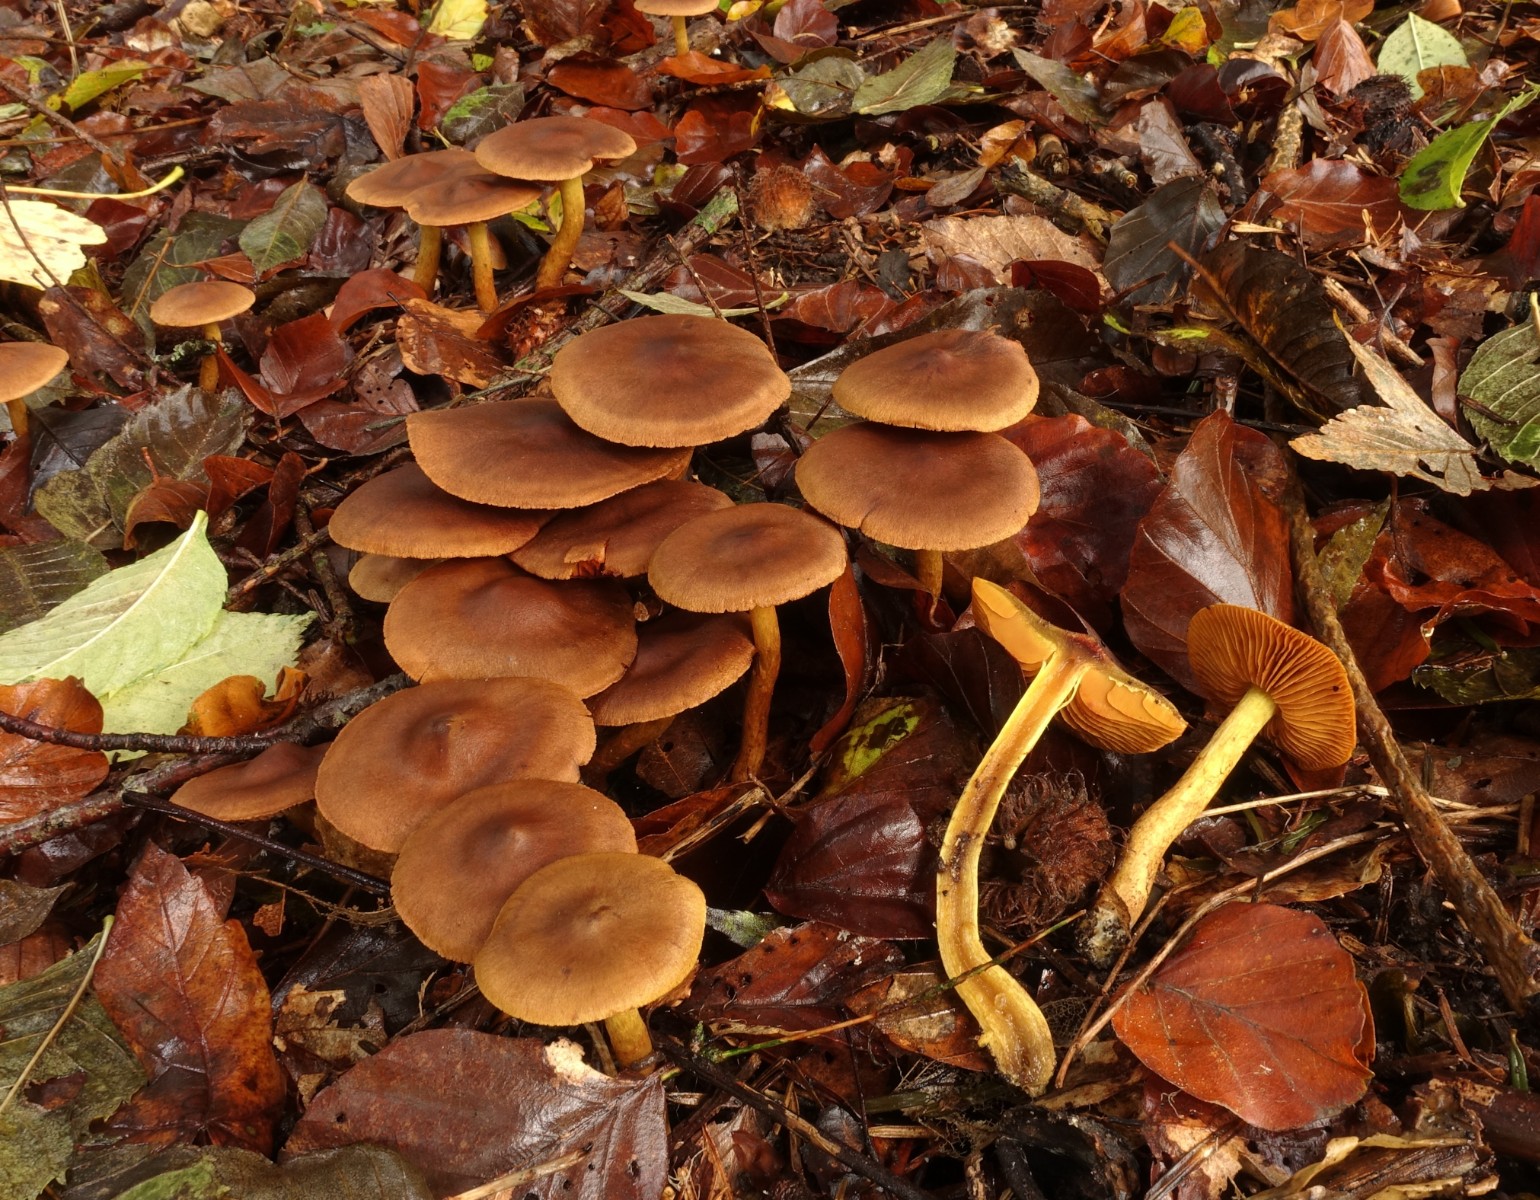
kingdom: Fungi
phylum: Basidiomycota
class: Agaricomycetes
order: Agaricales
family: Cortinariaceae
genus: Cortinarius
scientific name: Cortinarius malicorius
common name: grønkødet slørhat
